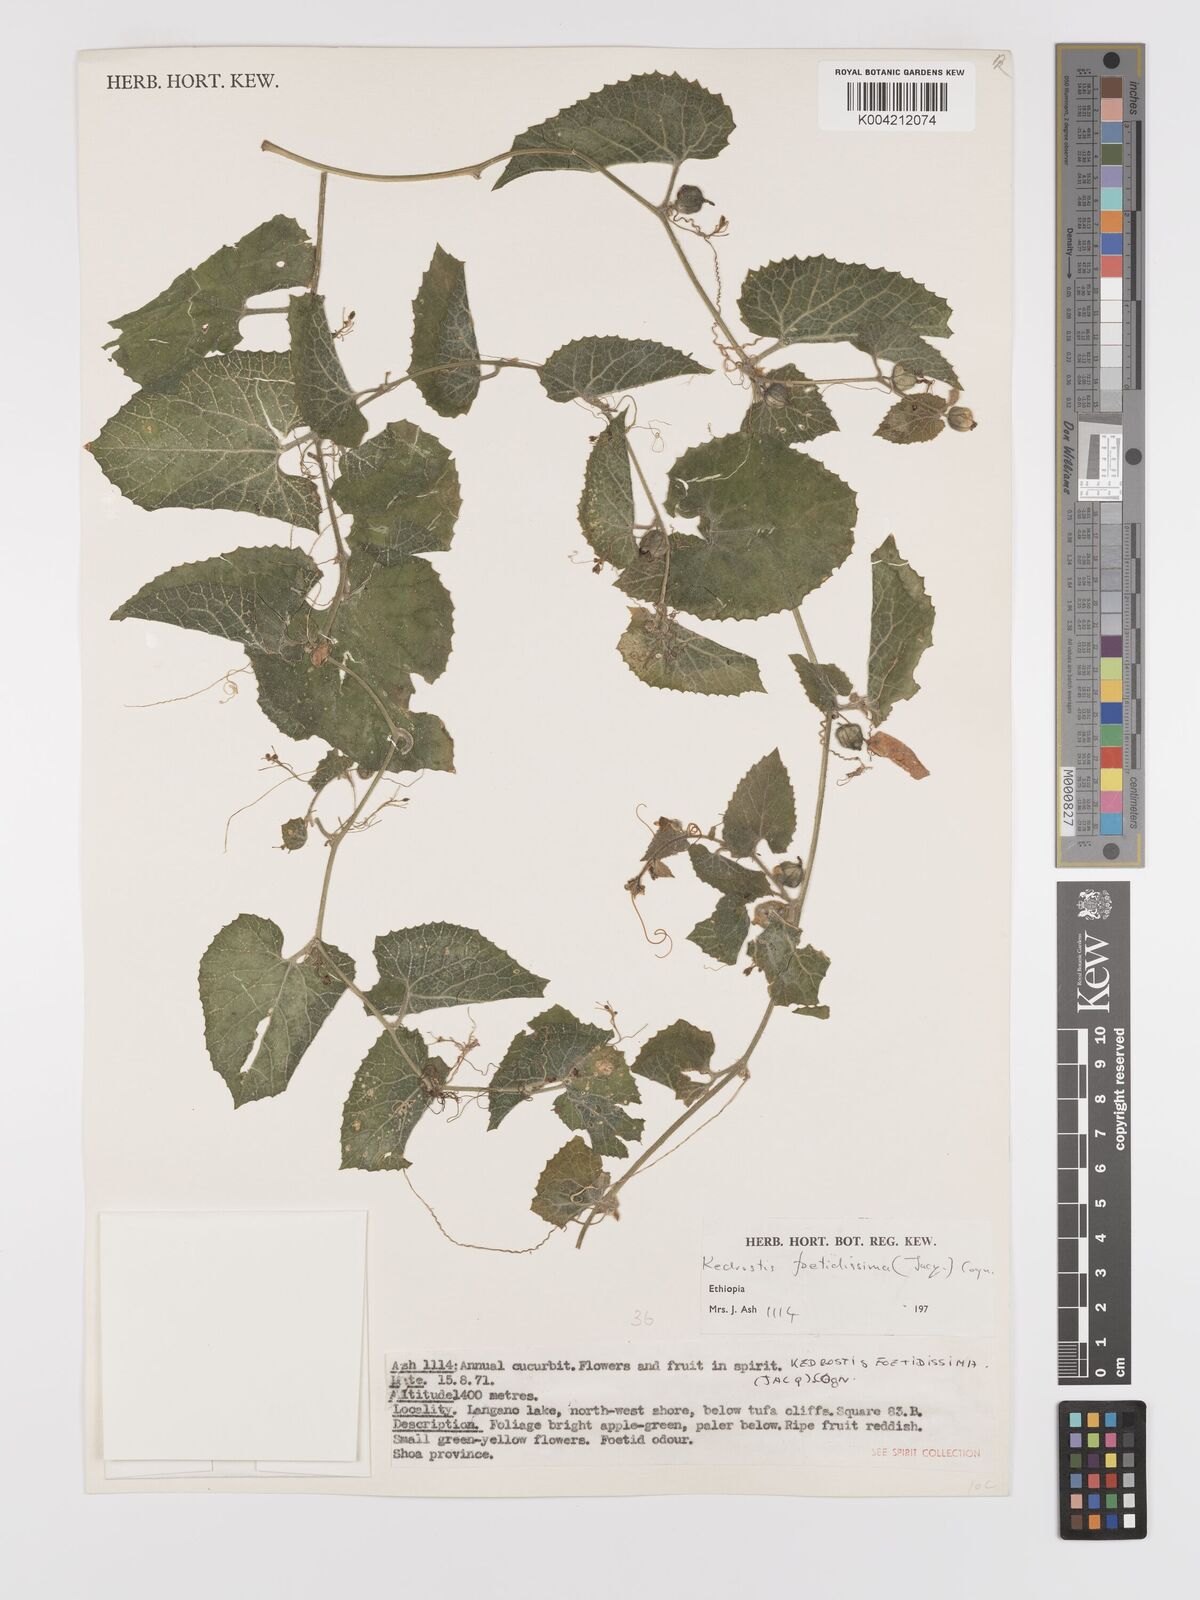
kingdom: Plantae
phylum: Tracheophyta
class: Magnoliopsida
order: Cucurbitales
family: Cucurbitaceae
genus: Kedrostis
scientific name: Kedrostis foetidissima
